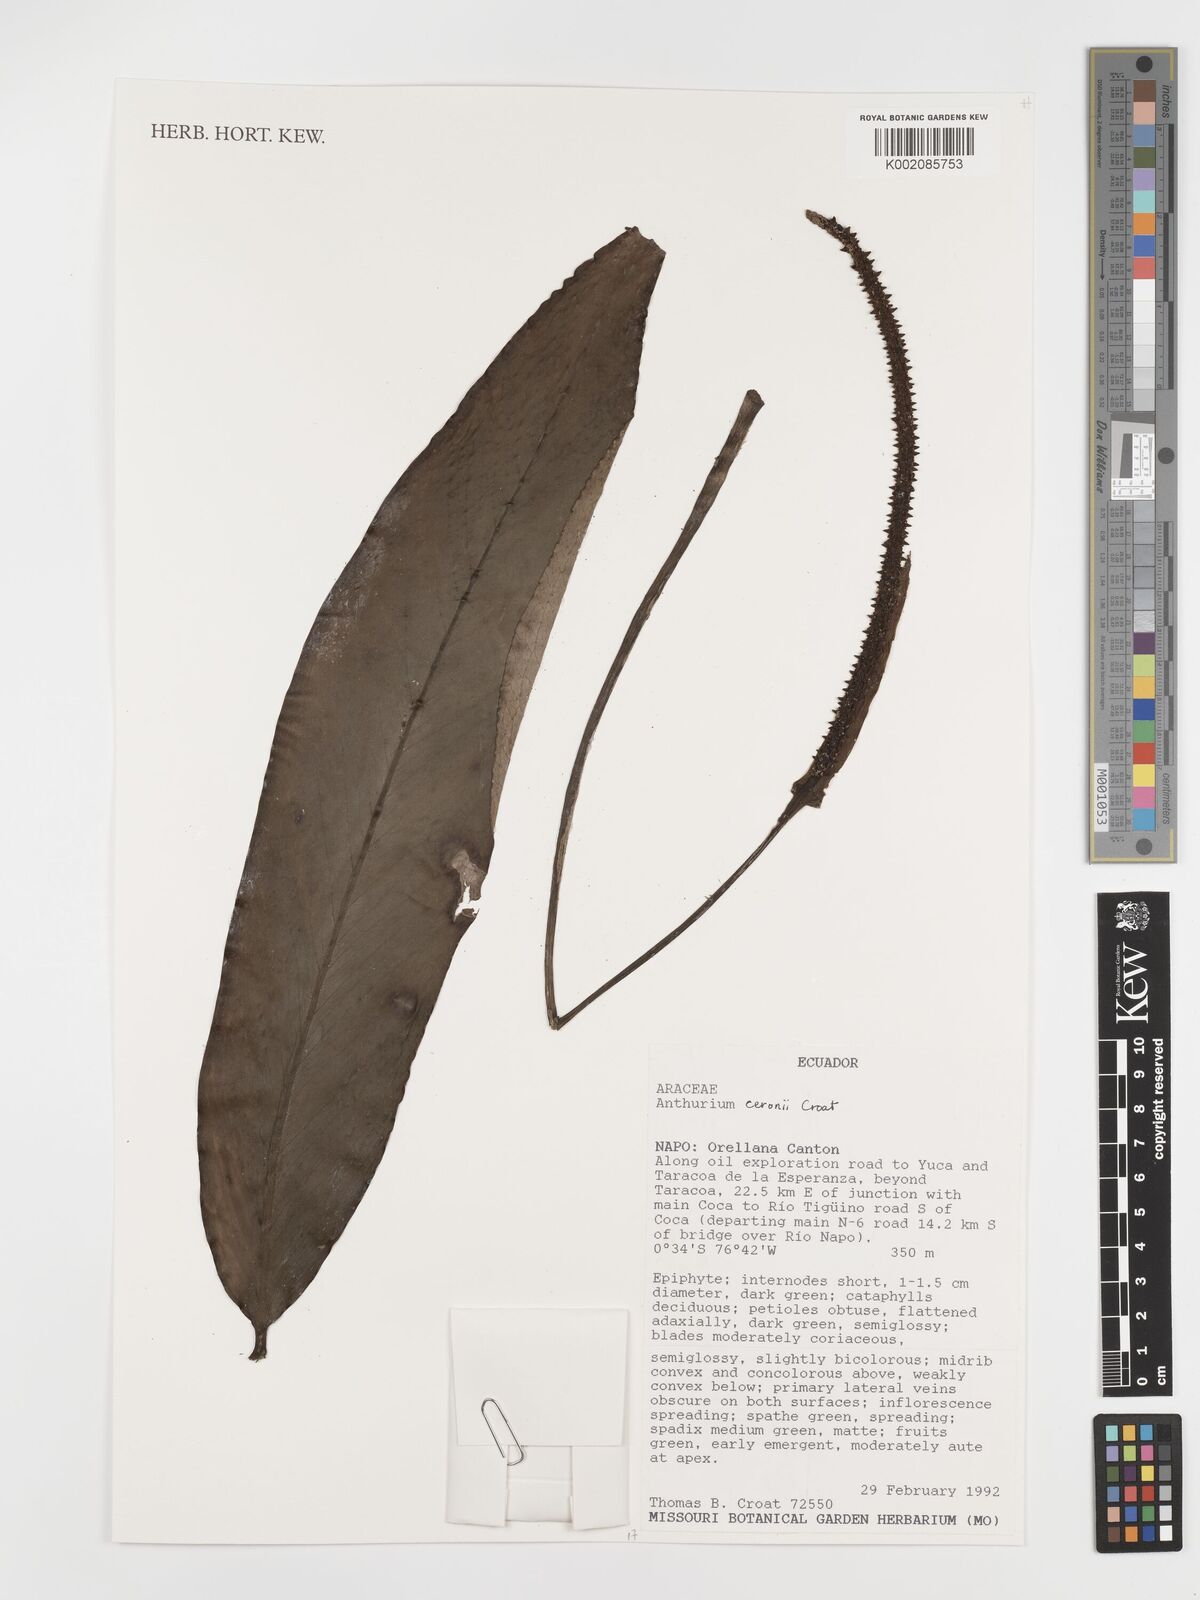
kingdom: Plantae
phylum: Tracheophyta
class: Liliopsida
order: Alismatales
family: Araceae
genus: Anthurium
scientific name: Anthurium ceronii
